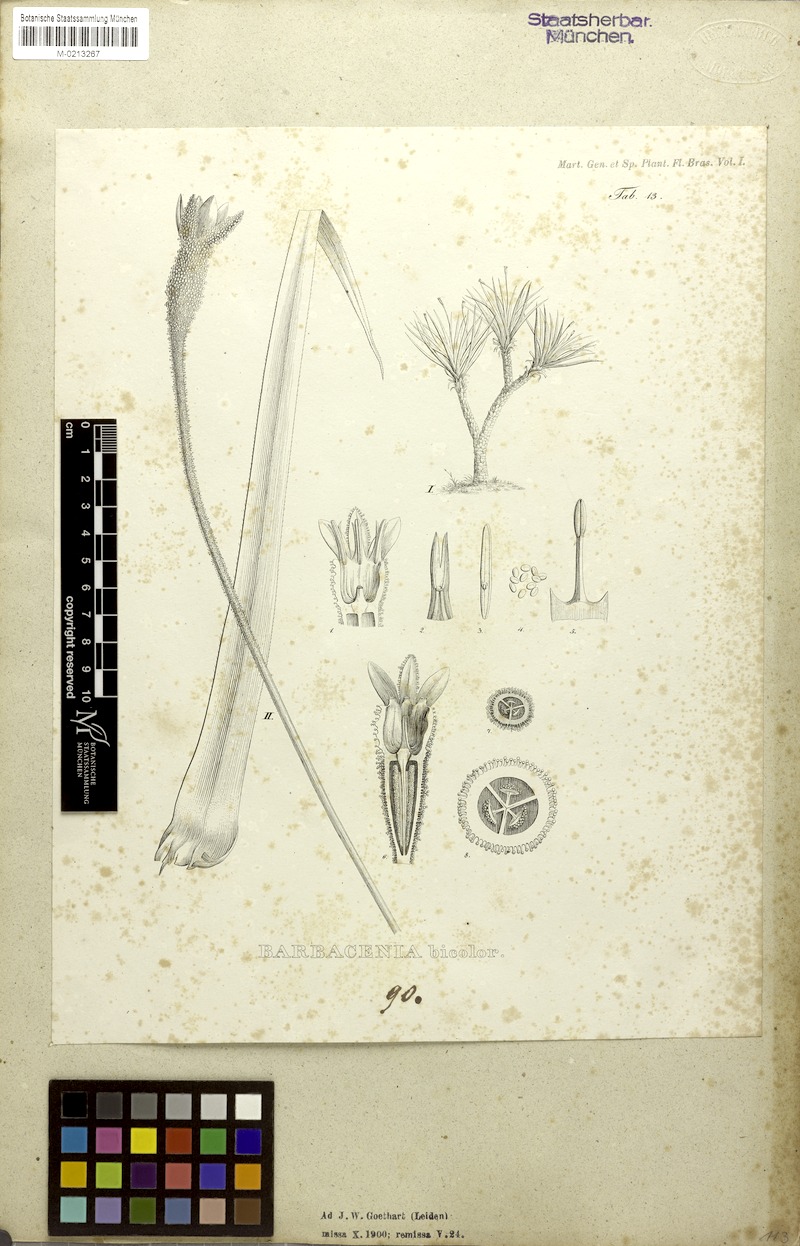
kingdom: Plantae
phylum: Tracheophyta
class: Liliopsida
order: Pandanales
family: Velloziaceae
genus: Barbacenia
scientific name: Barbacenia brasiliensis
